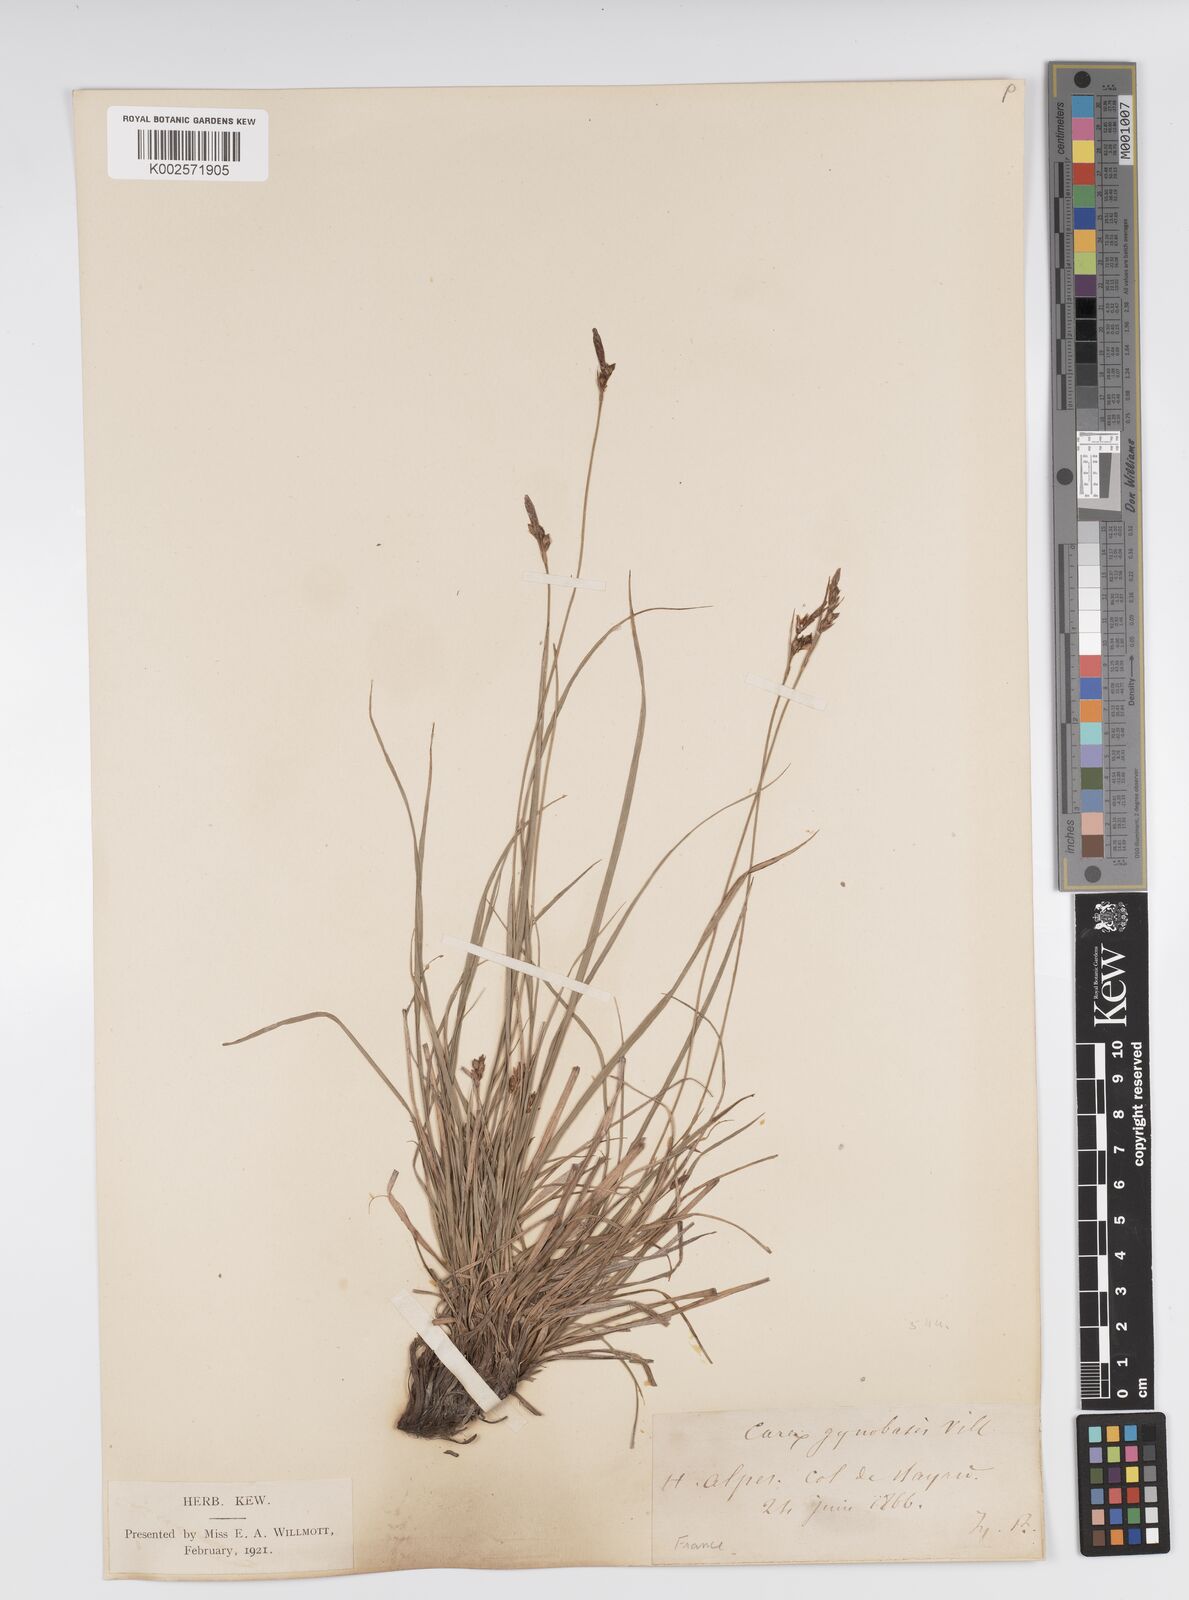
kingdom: Plantae
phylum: Tracheophyta
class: Liliopsida
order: Poales
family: Cyperaceae
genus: Carex
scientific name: Carex halleriana
